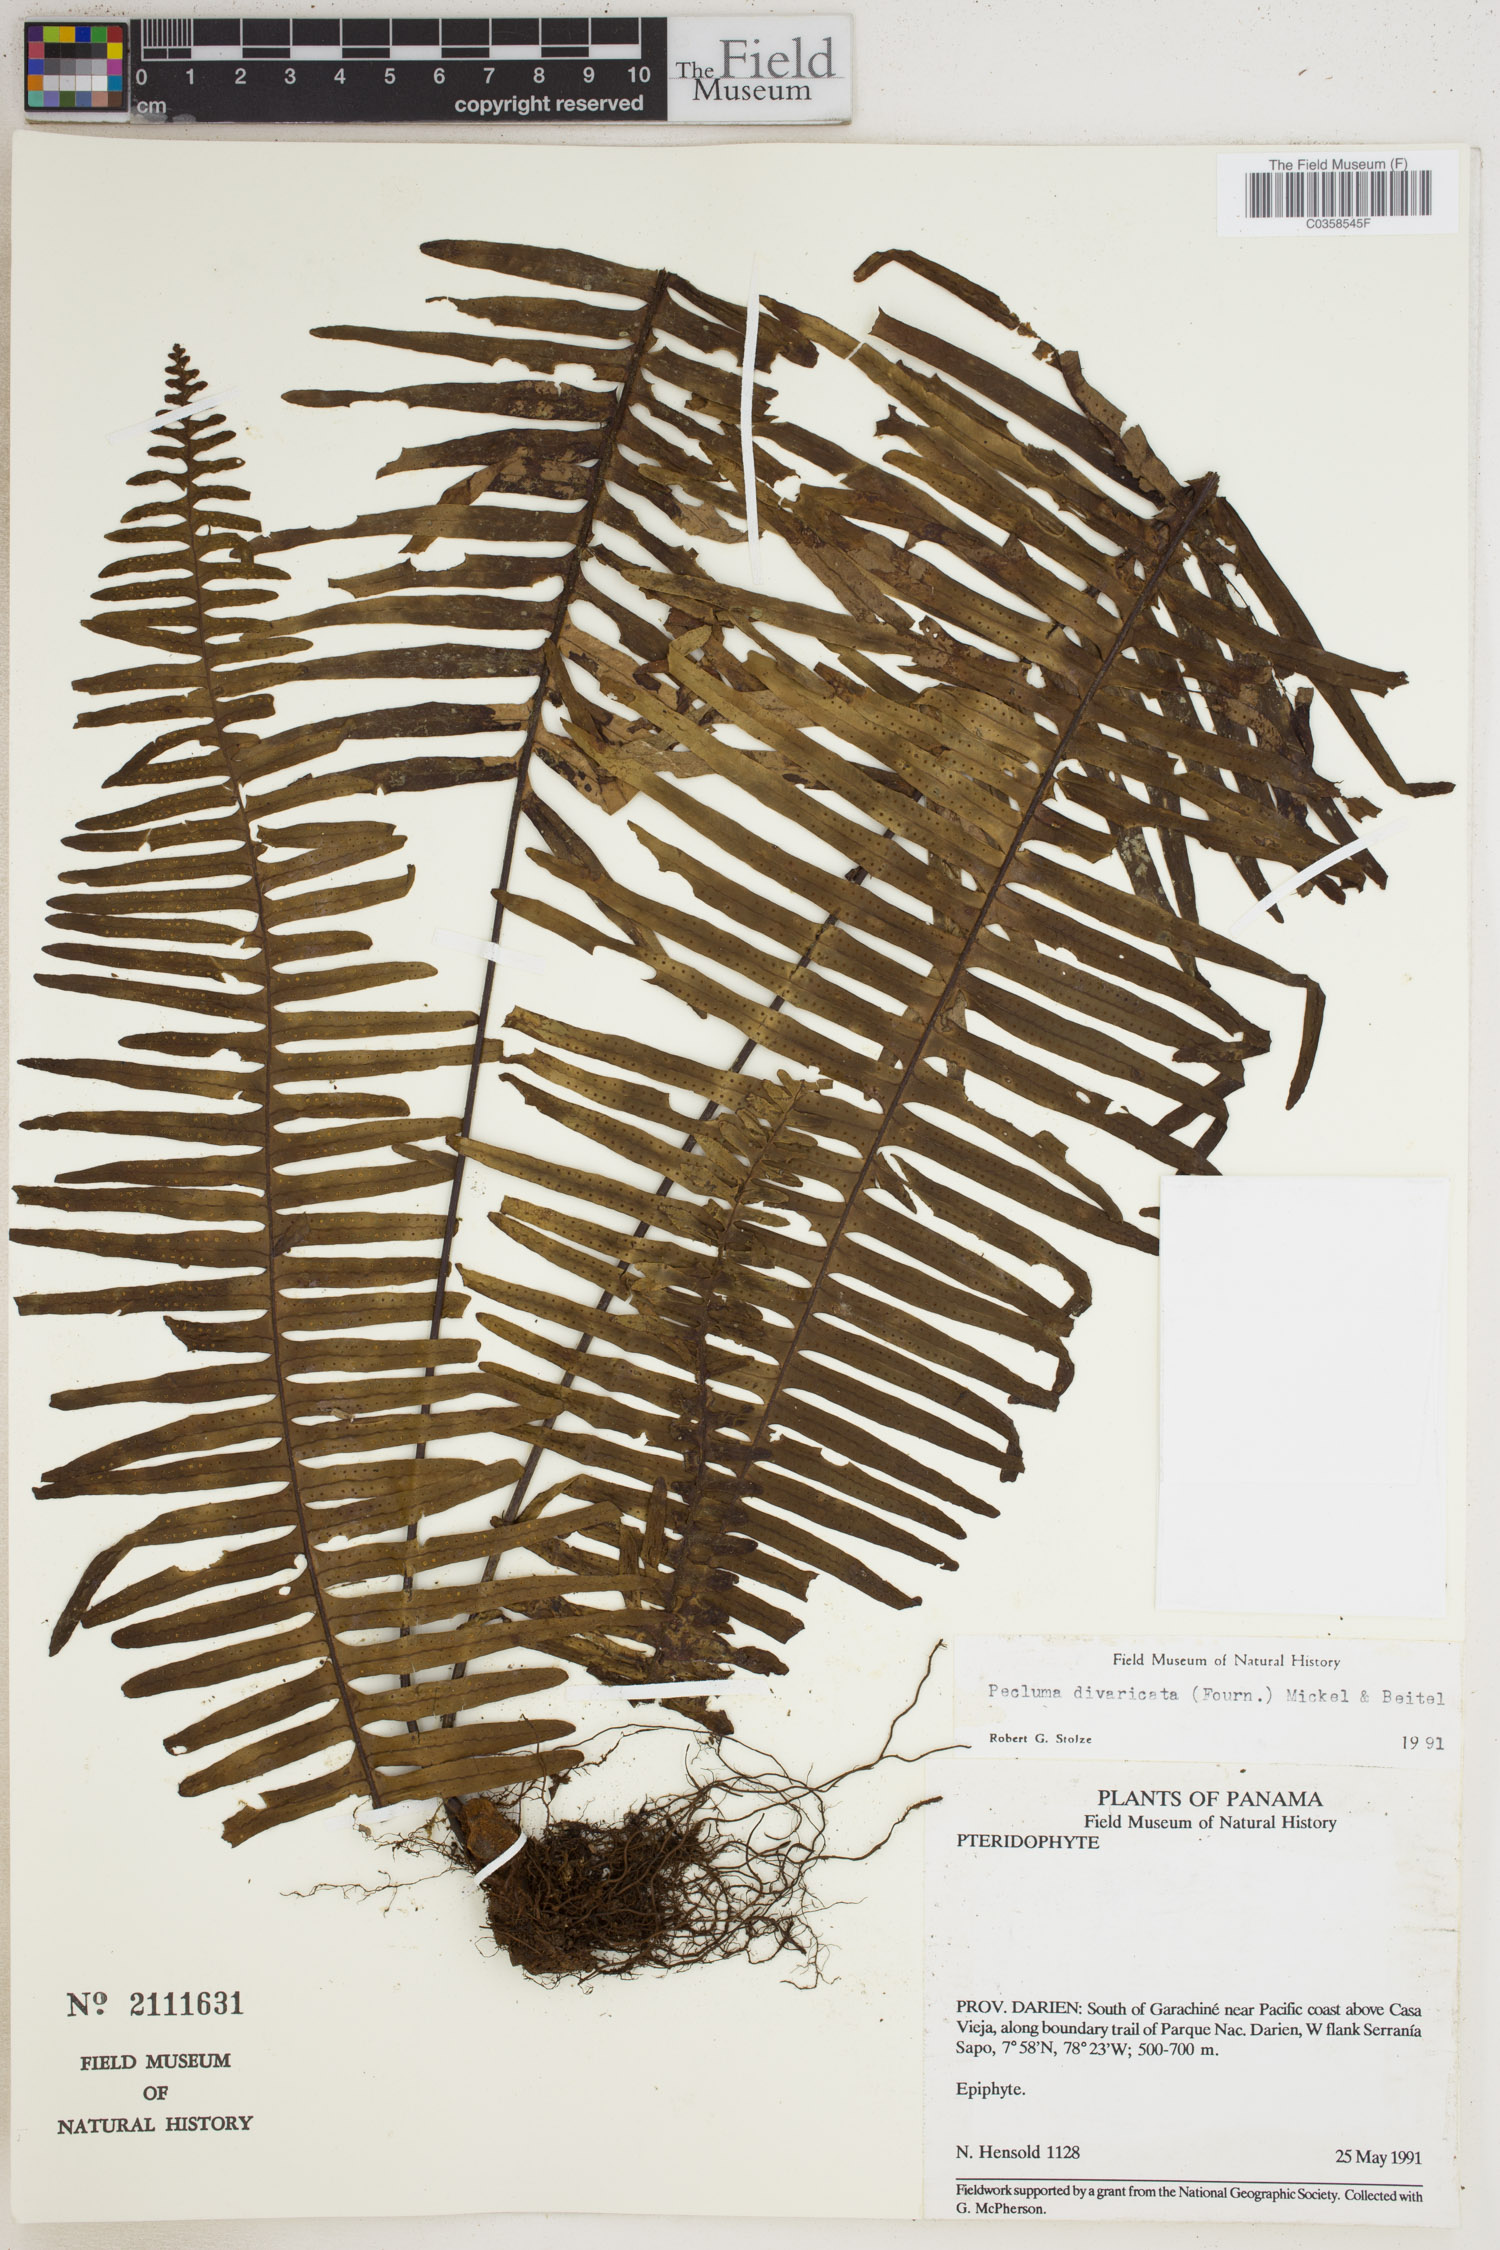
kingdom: Plantae
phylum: Tracheophyta
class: Polypodiopsida
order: Polypodiales
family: Polypodiaceae
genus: Pecluma
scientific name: Pecluma divaricata
